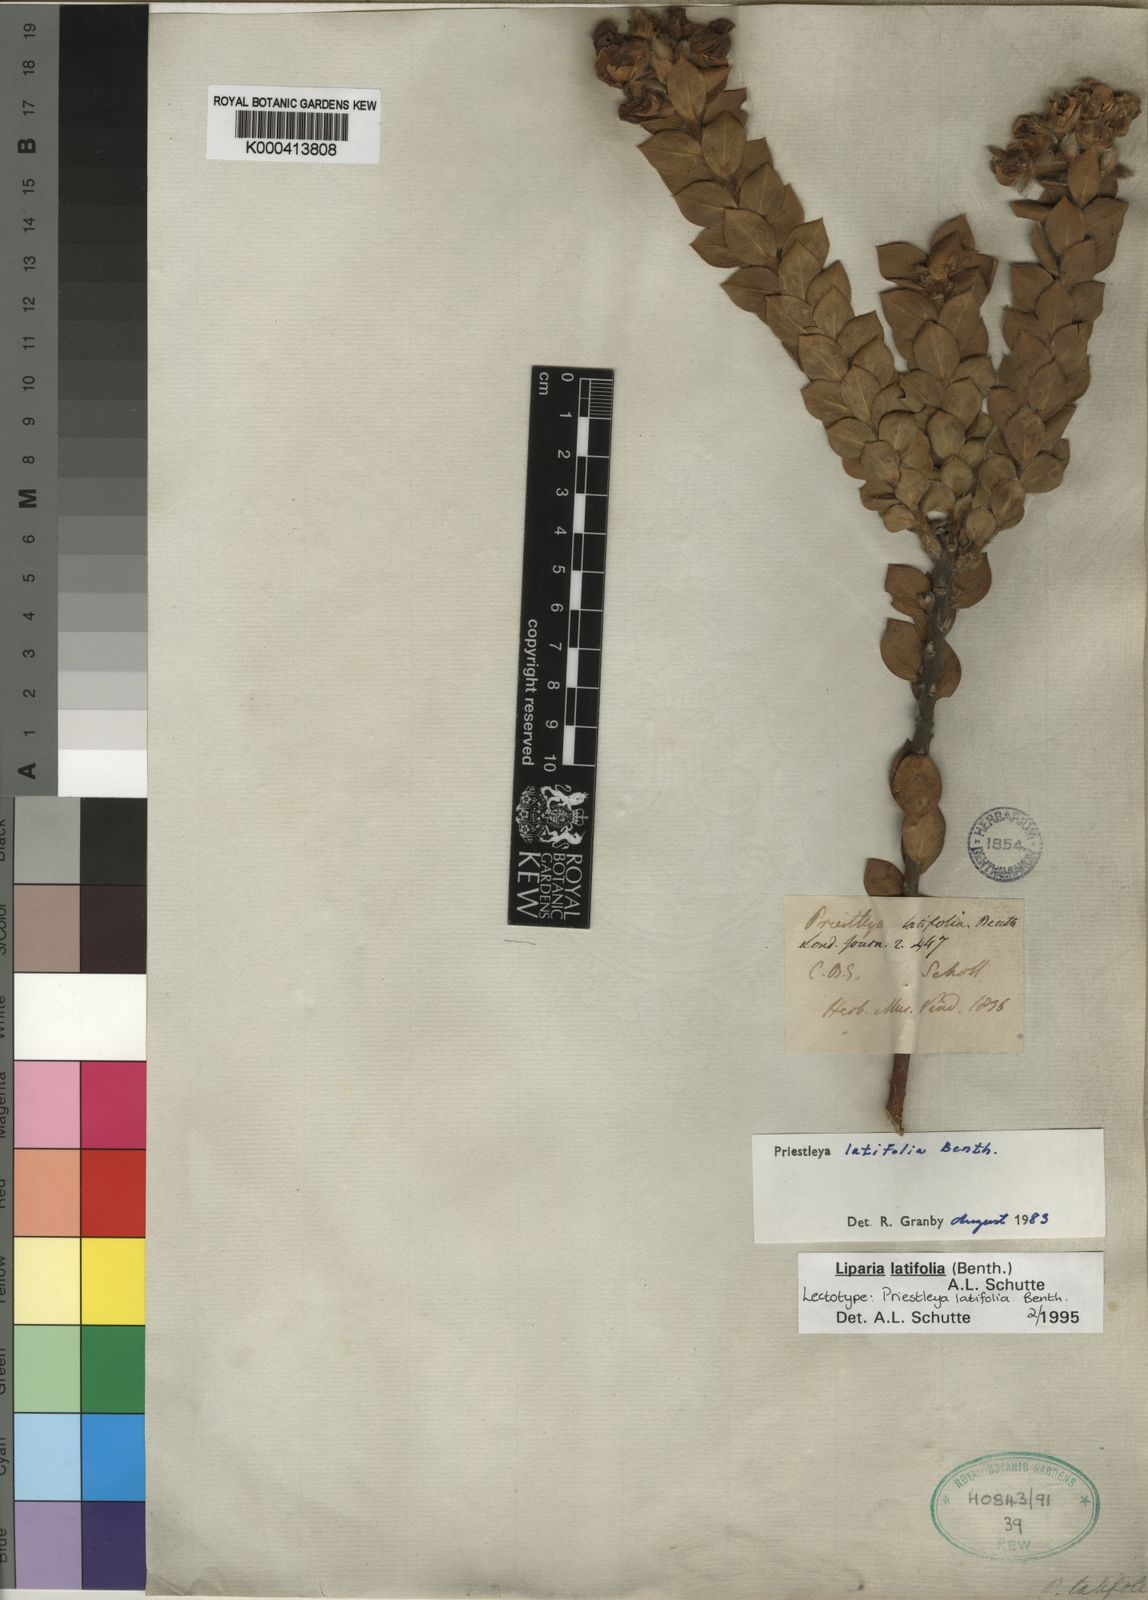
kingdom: Plantae
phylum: Tracheophyta
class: Magnoliopsida
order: Fabales
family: Fabaceae
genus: Liparia
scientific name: Liparia latifolia
